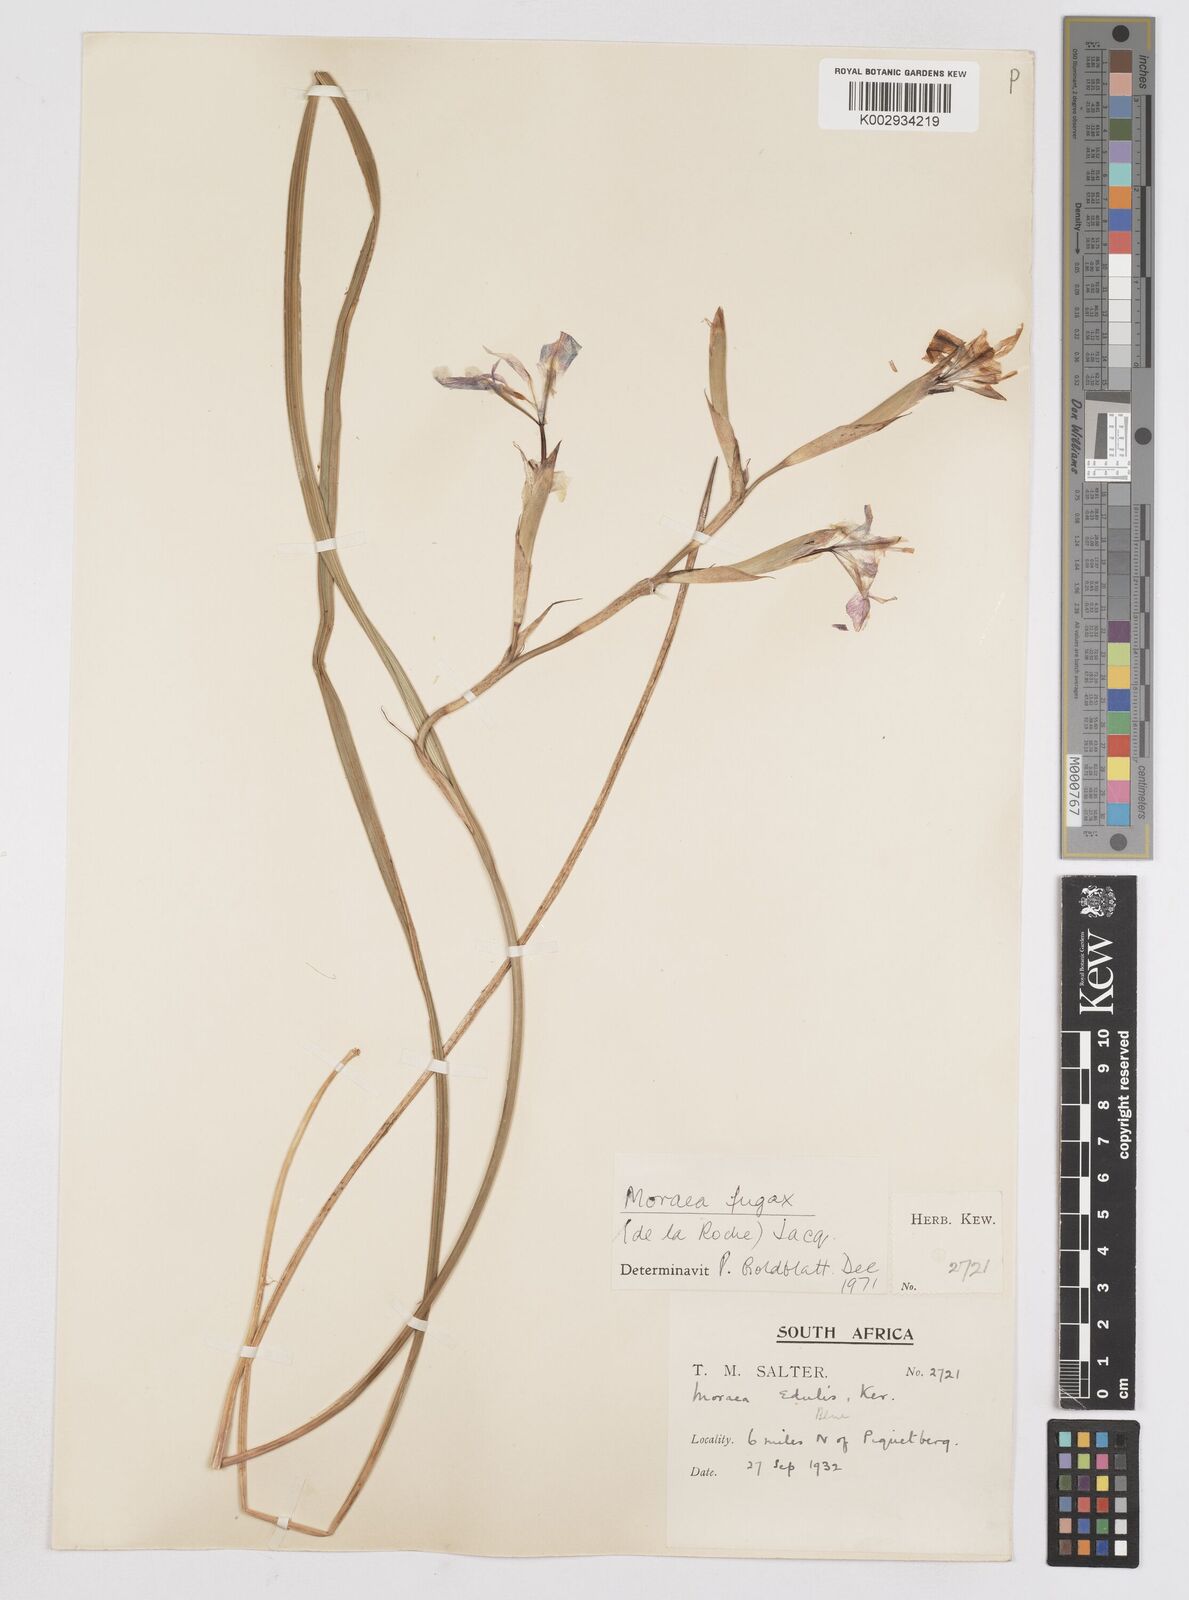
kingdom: Plantae
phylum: Tracheophyta
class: Liliopsida
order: Asparagales
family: Iridaceae
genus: Moraea
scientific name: Moraea fugax
